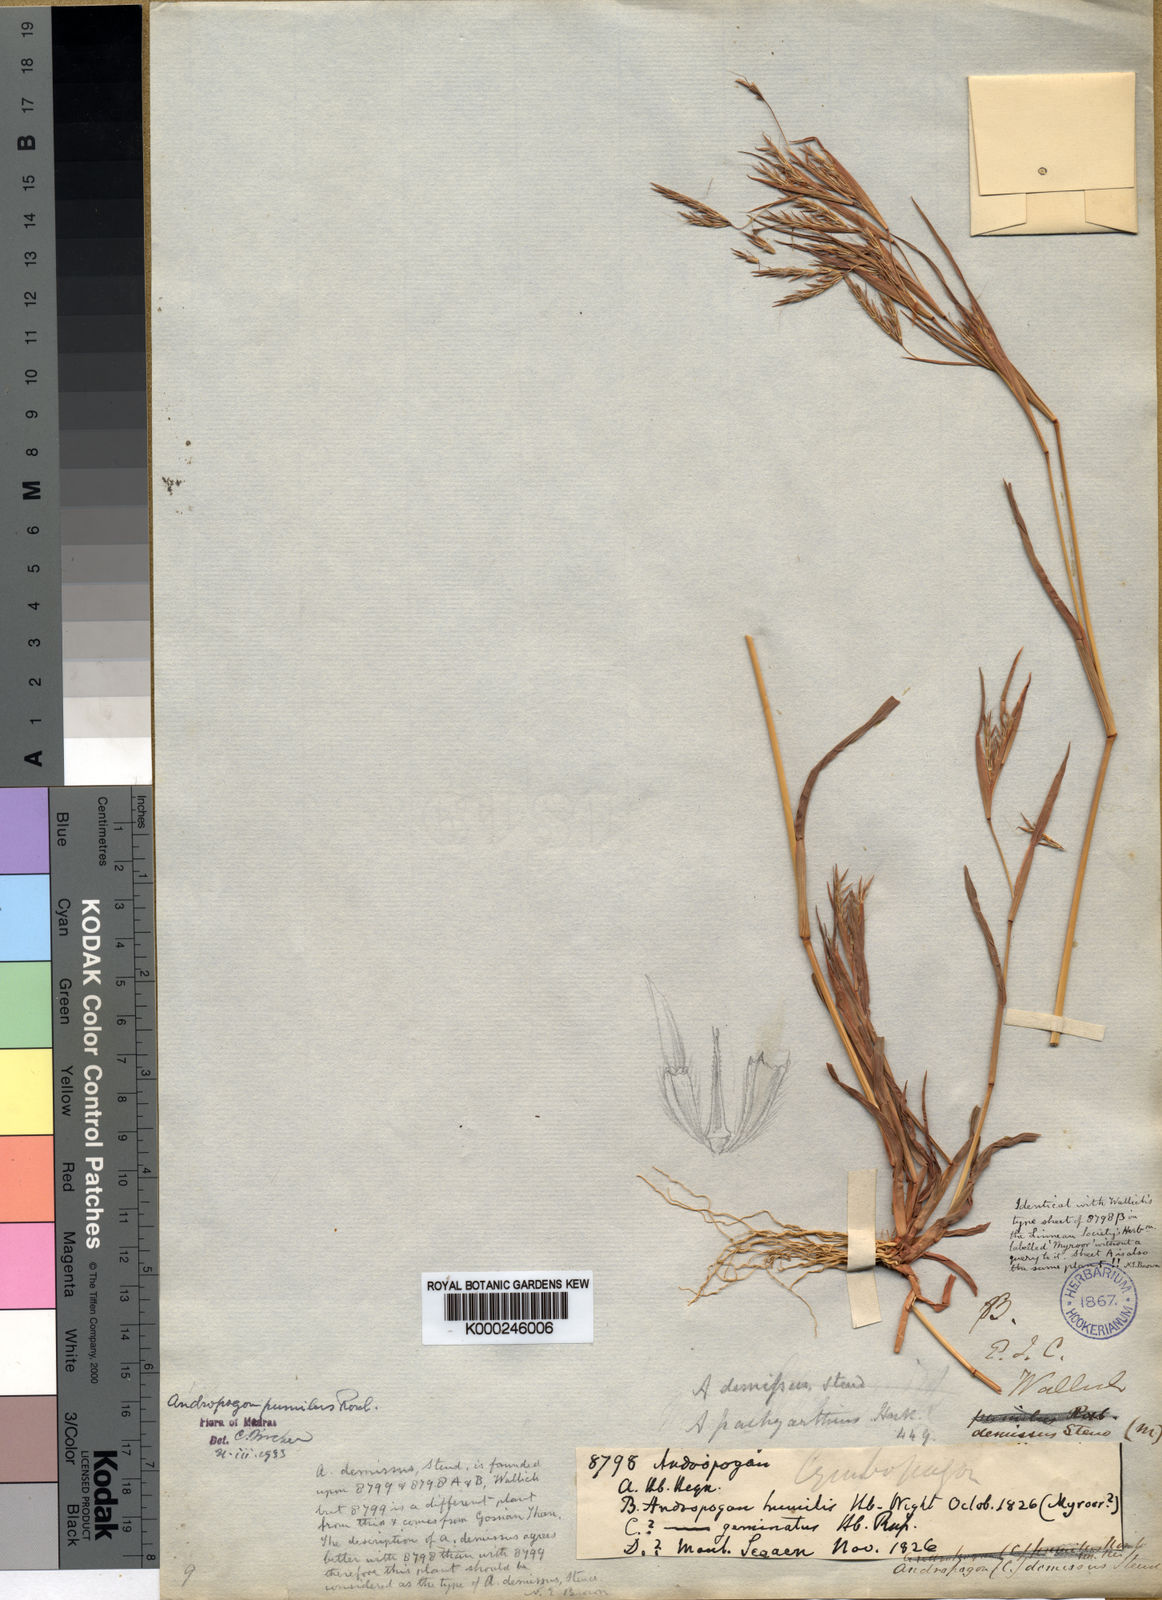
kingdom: Plantae
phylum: Tracheophyta
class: Liliopsida
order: Poales
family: Poaceae
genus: Andropogon
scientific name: Andropogon pumilus
